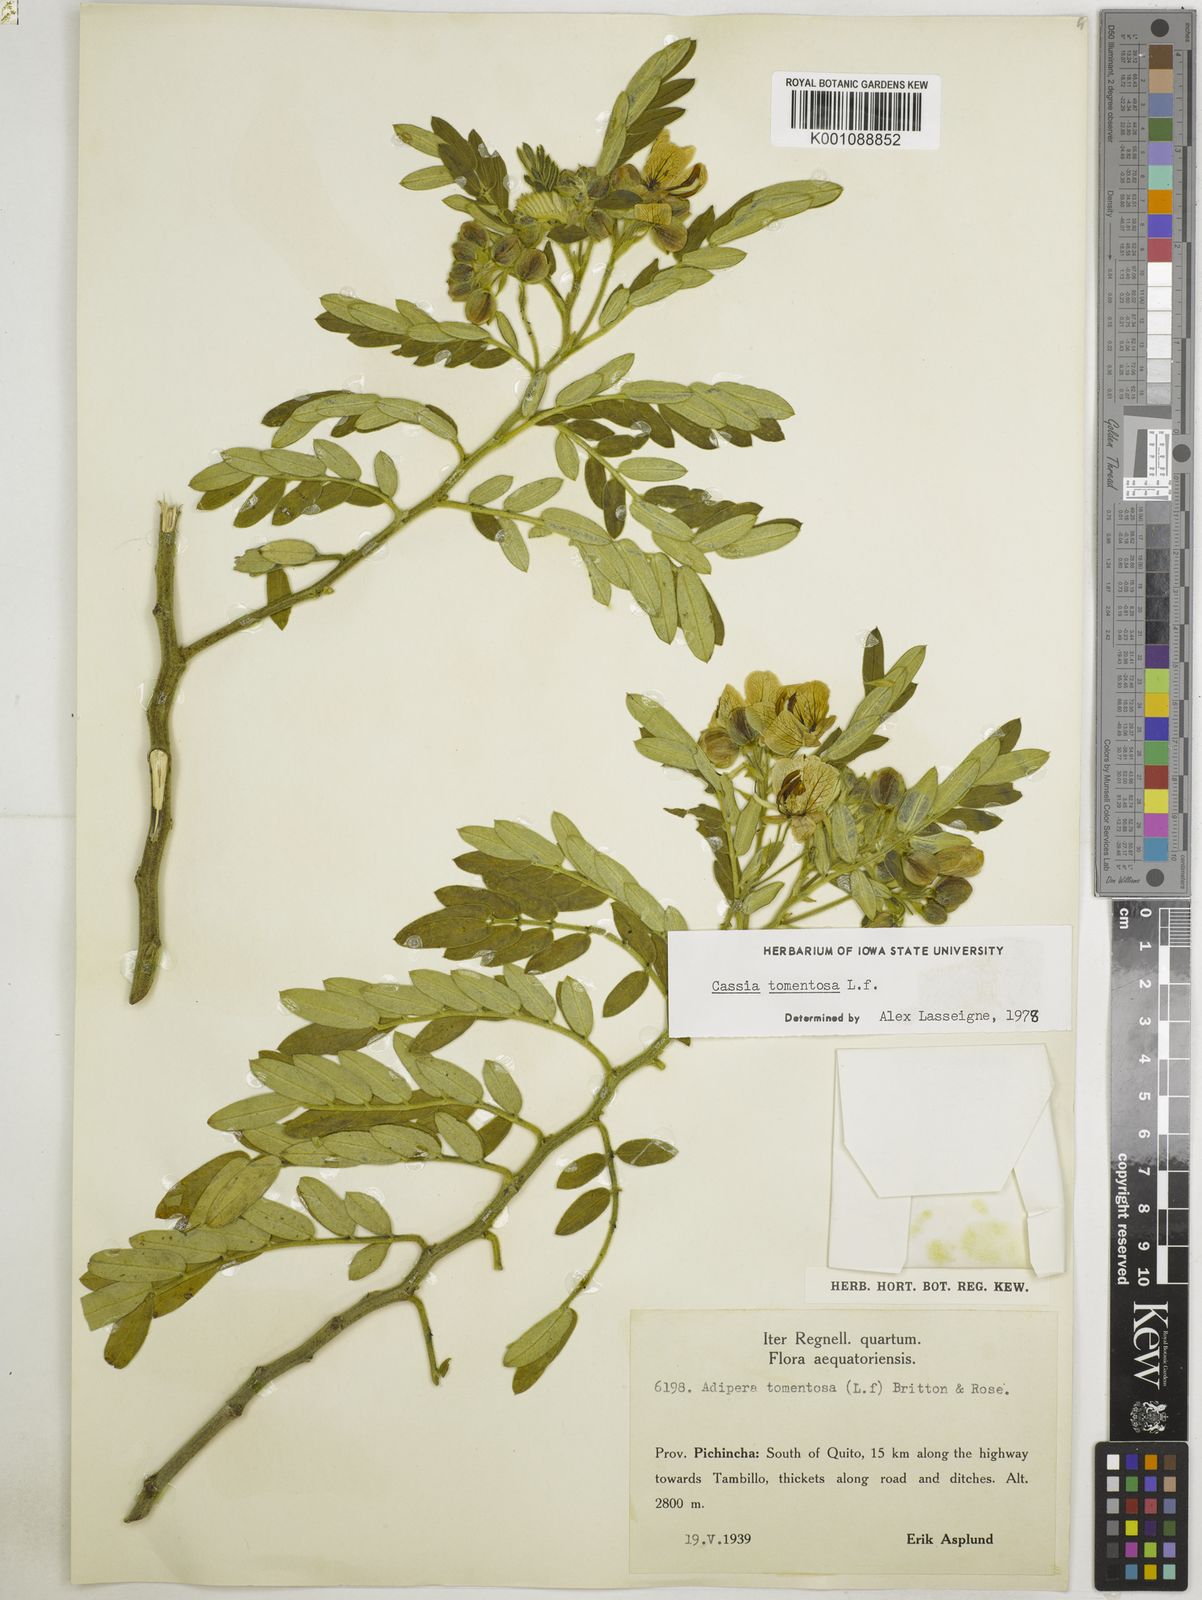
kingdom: Plantae
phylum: Tracheophyta
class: Magnoliopsida
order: Fabales
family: Fabaceae
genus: Senna
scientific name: Senna
